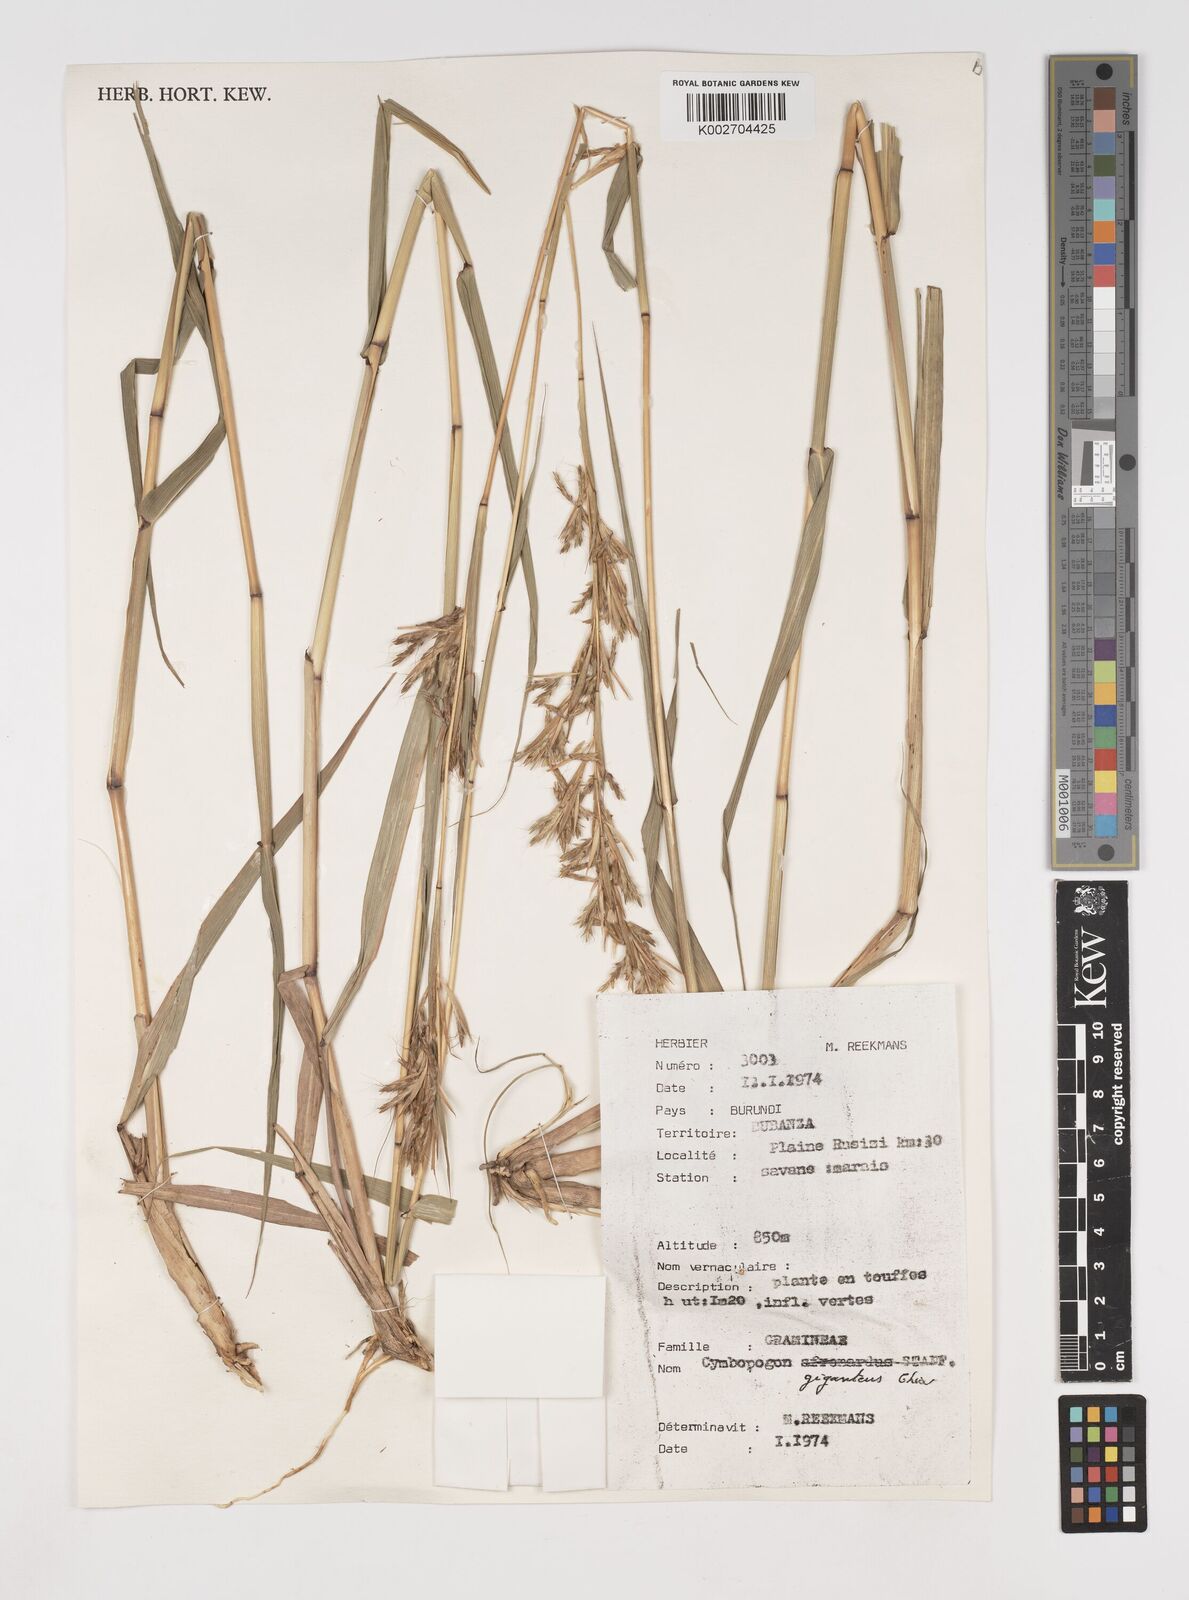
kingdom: Plantae
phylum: Tracheophyta
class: Liliopsida
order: Poales
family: Poaceae
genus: Cymbopogon
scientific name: Cymbopogon giganteus
